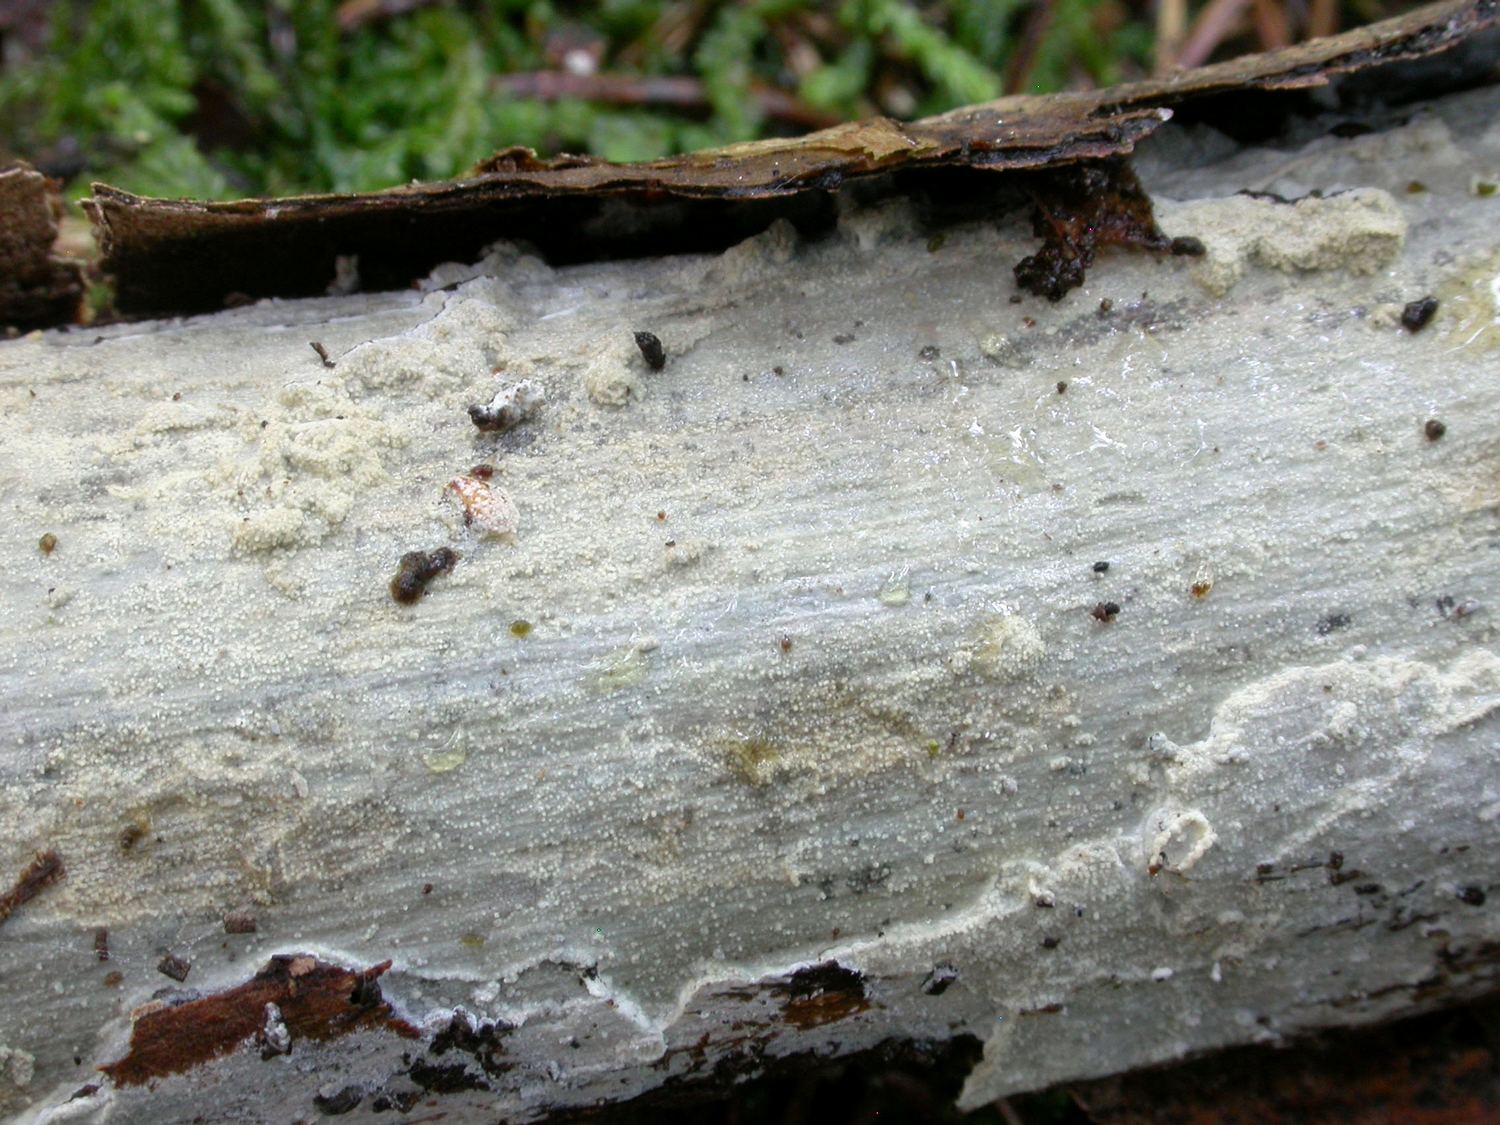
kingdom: Fungi
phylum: Basidiomycota
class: Agaricomycetes
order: Trechisporales
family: Hydnodontaceae
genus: Brevicellicium
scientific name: Brevicellicium olivascens
